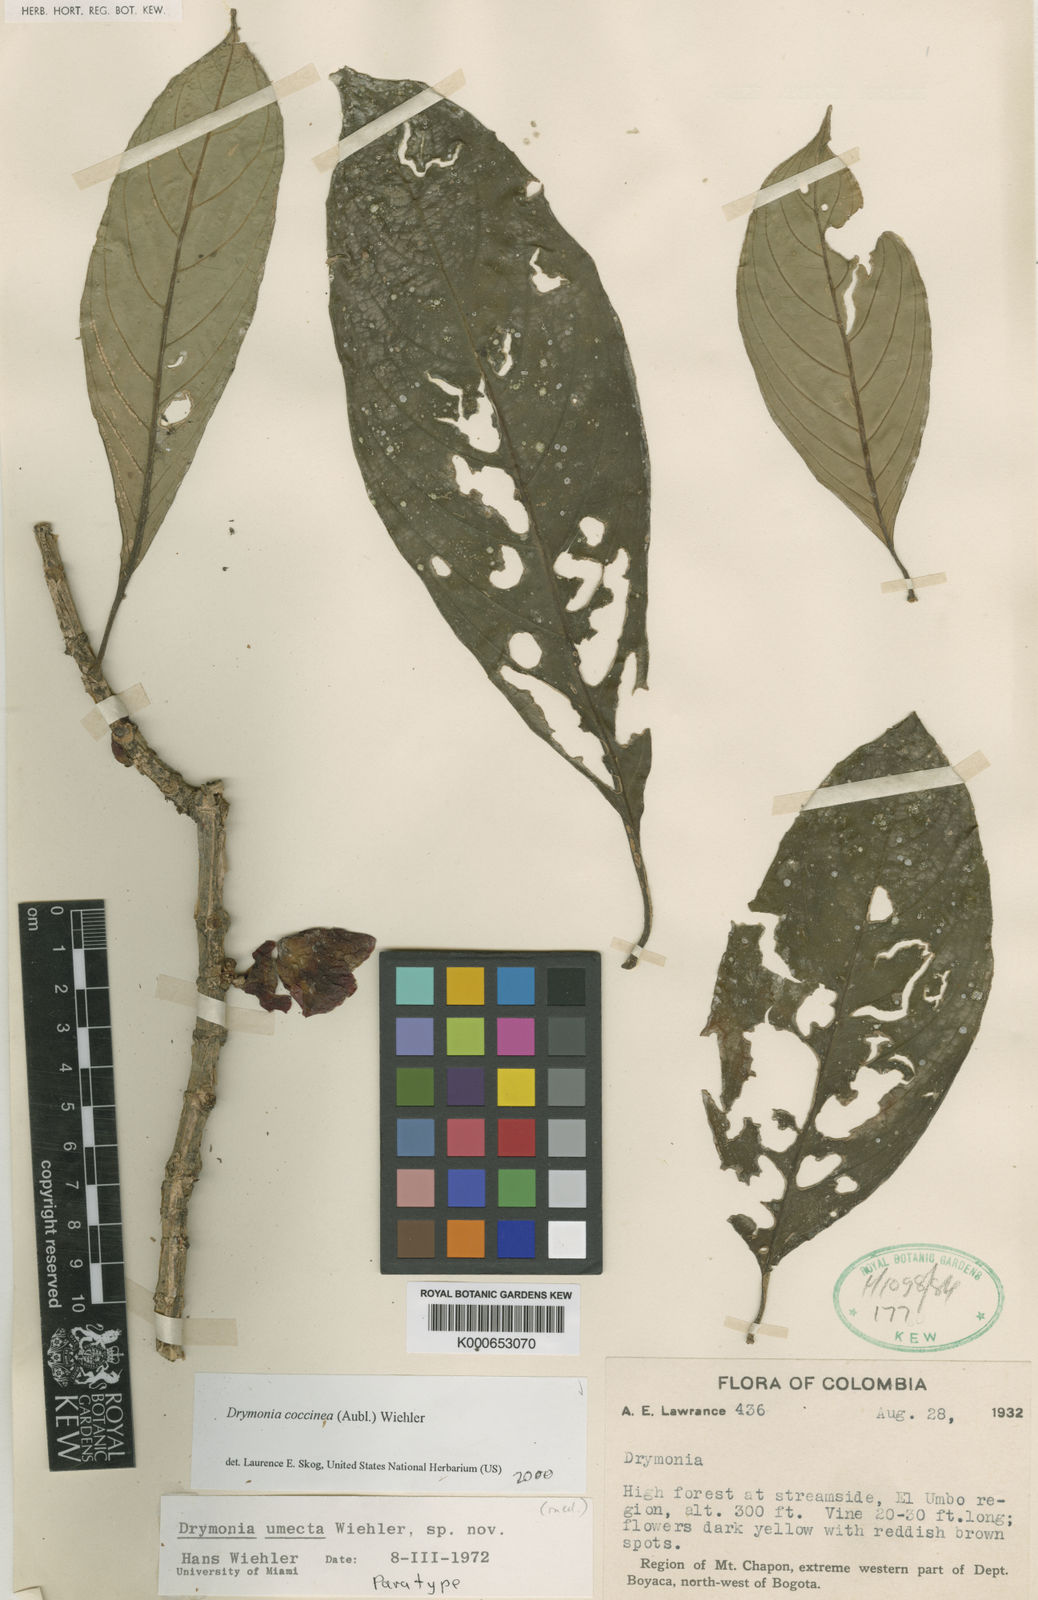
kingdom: Plantae
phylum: Tracheophyta
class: Magnoliopsida
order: Lamiales
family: Gesneriaceae
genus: Drymonia
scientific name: Drymonia
